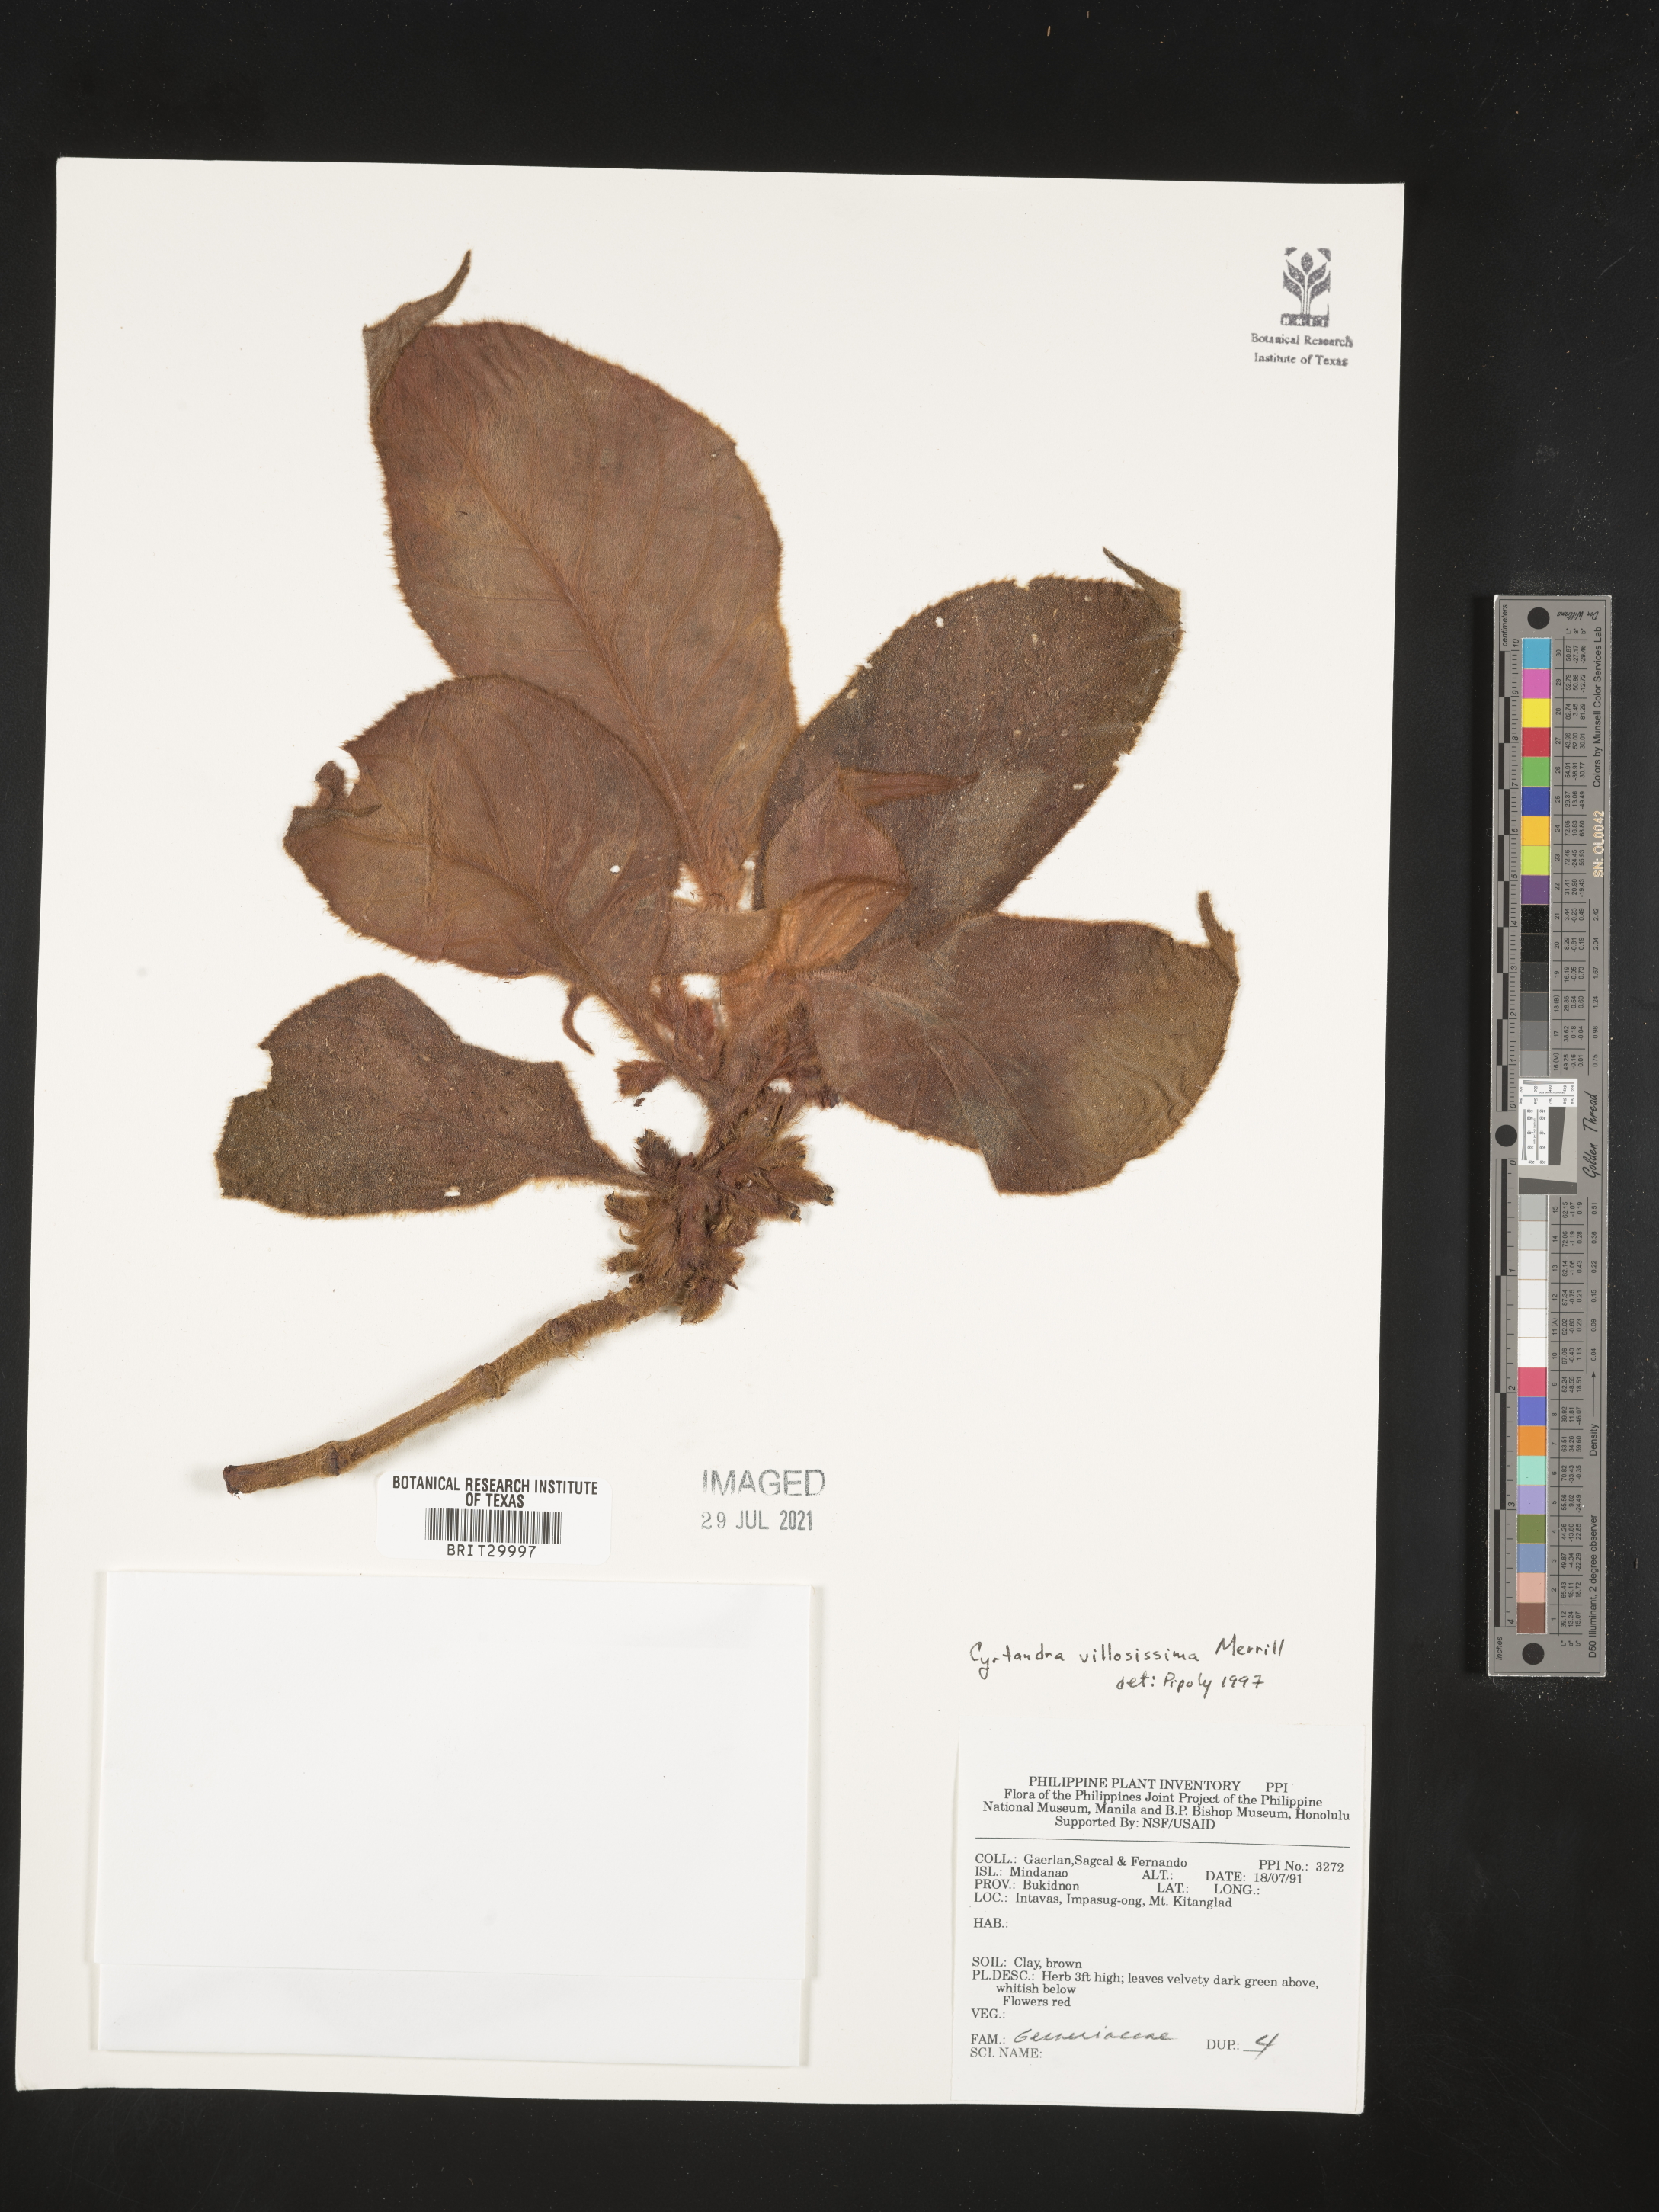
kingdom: Plantae
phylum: Tracheophyta
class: Magnoliopsida
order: Lamiales
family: Gesneriaceae
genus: Cyrtandra
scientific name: Cyrtandra villosissima
